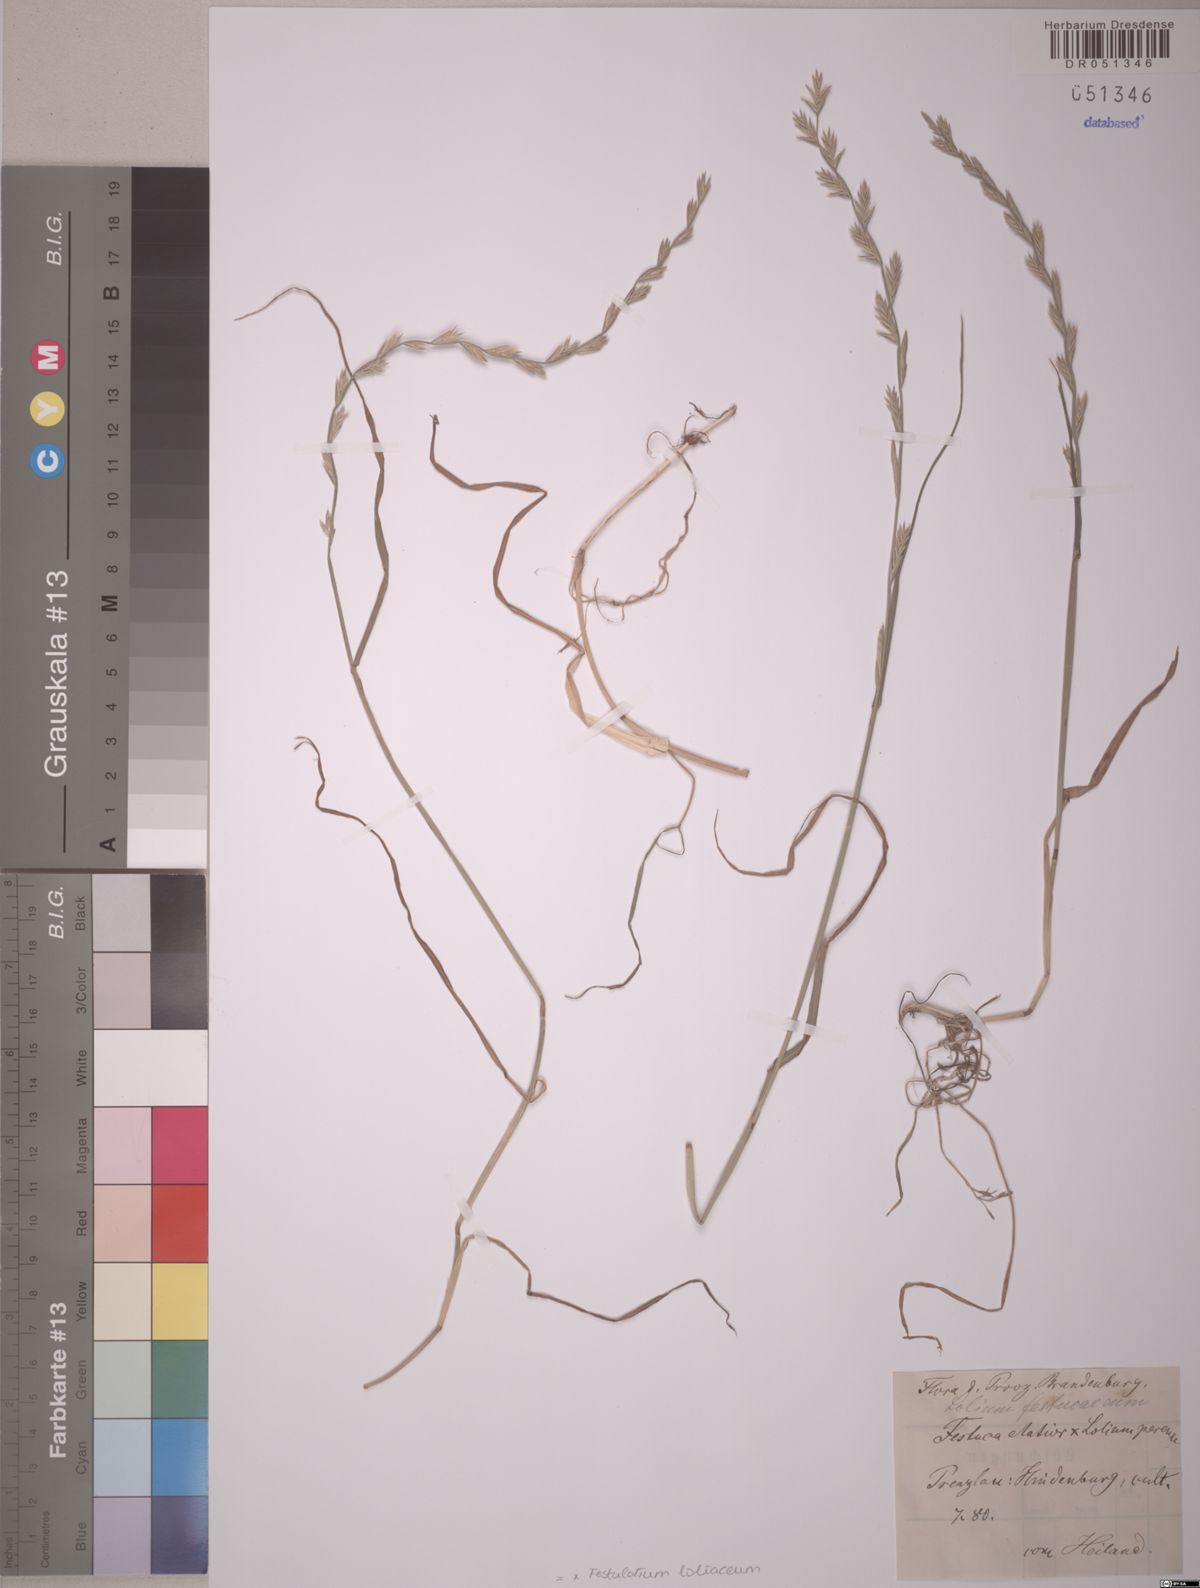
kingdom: Plantae
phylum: Tracheophyta
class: Liliopsida
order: Poales
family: Poaceae
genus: Lolium
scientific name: Lolium elongatum
